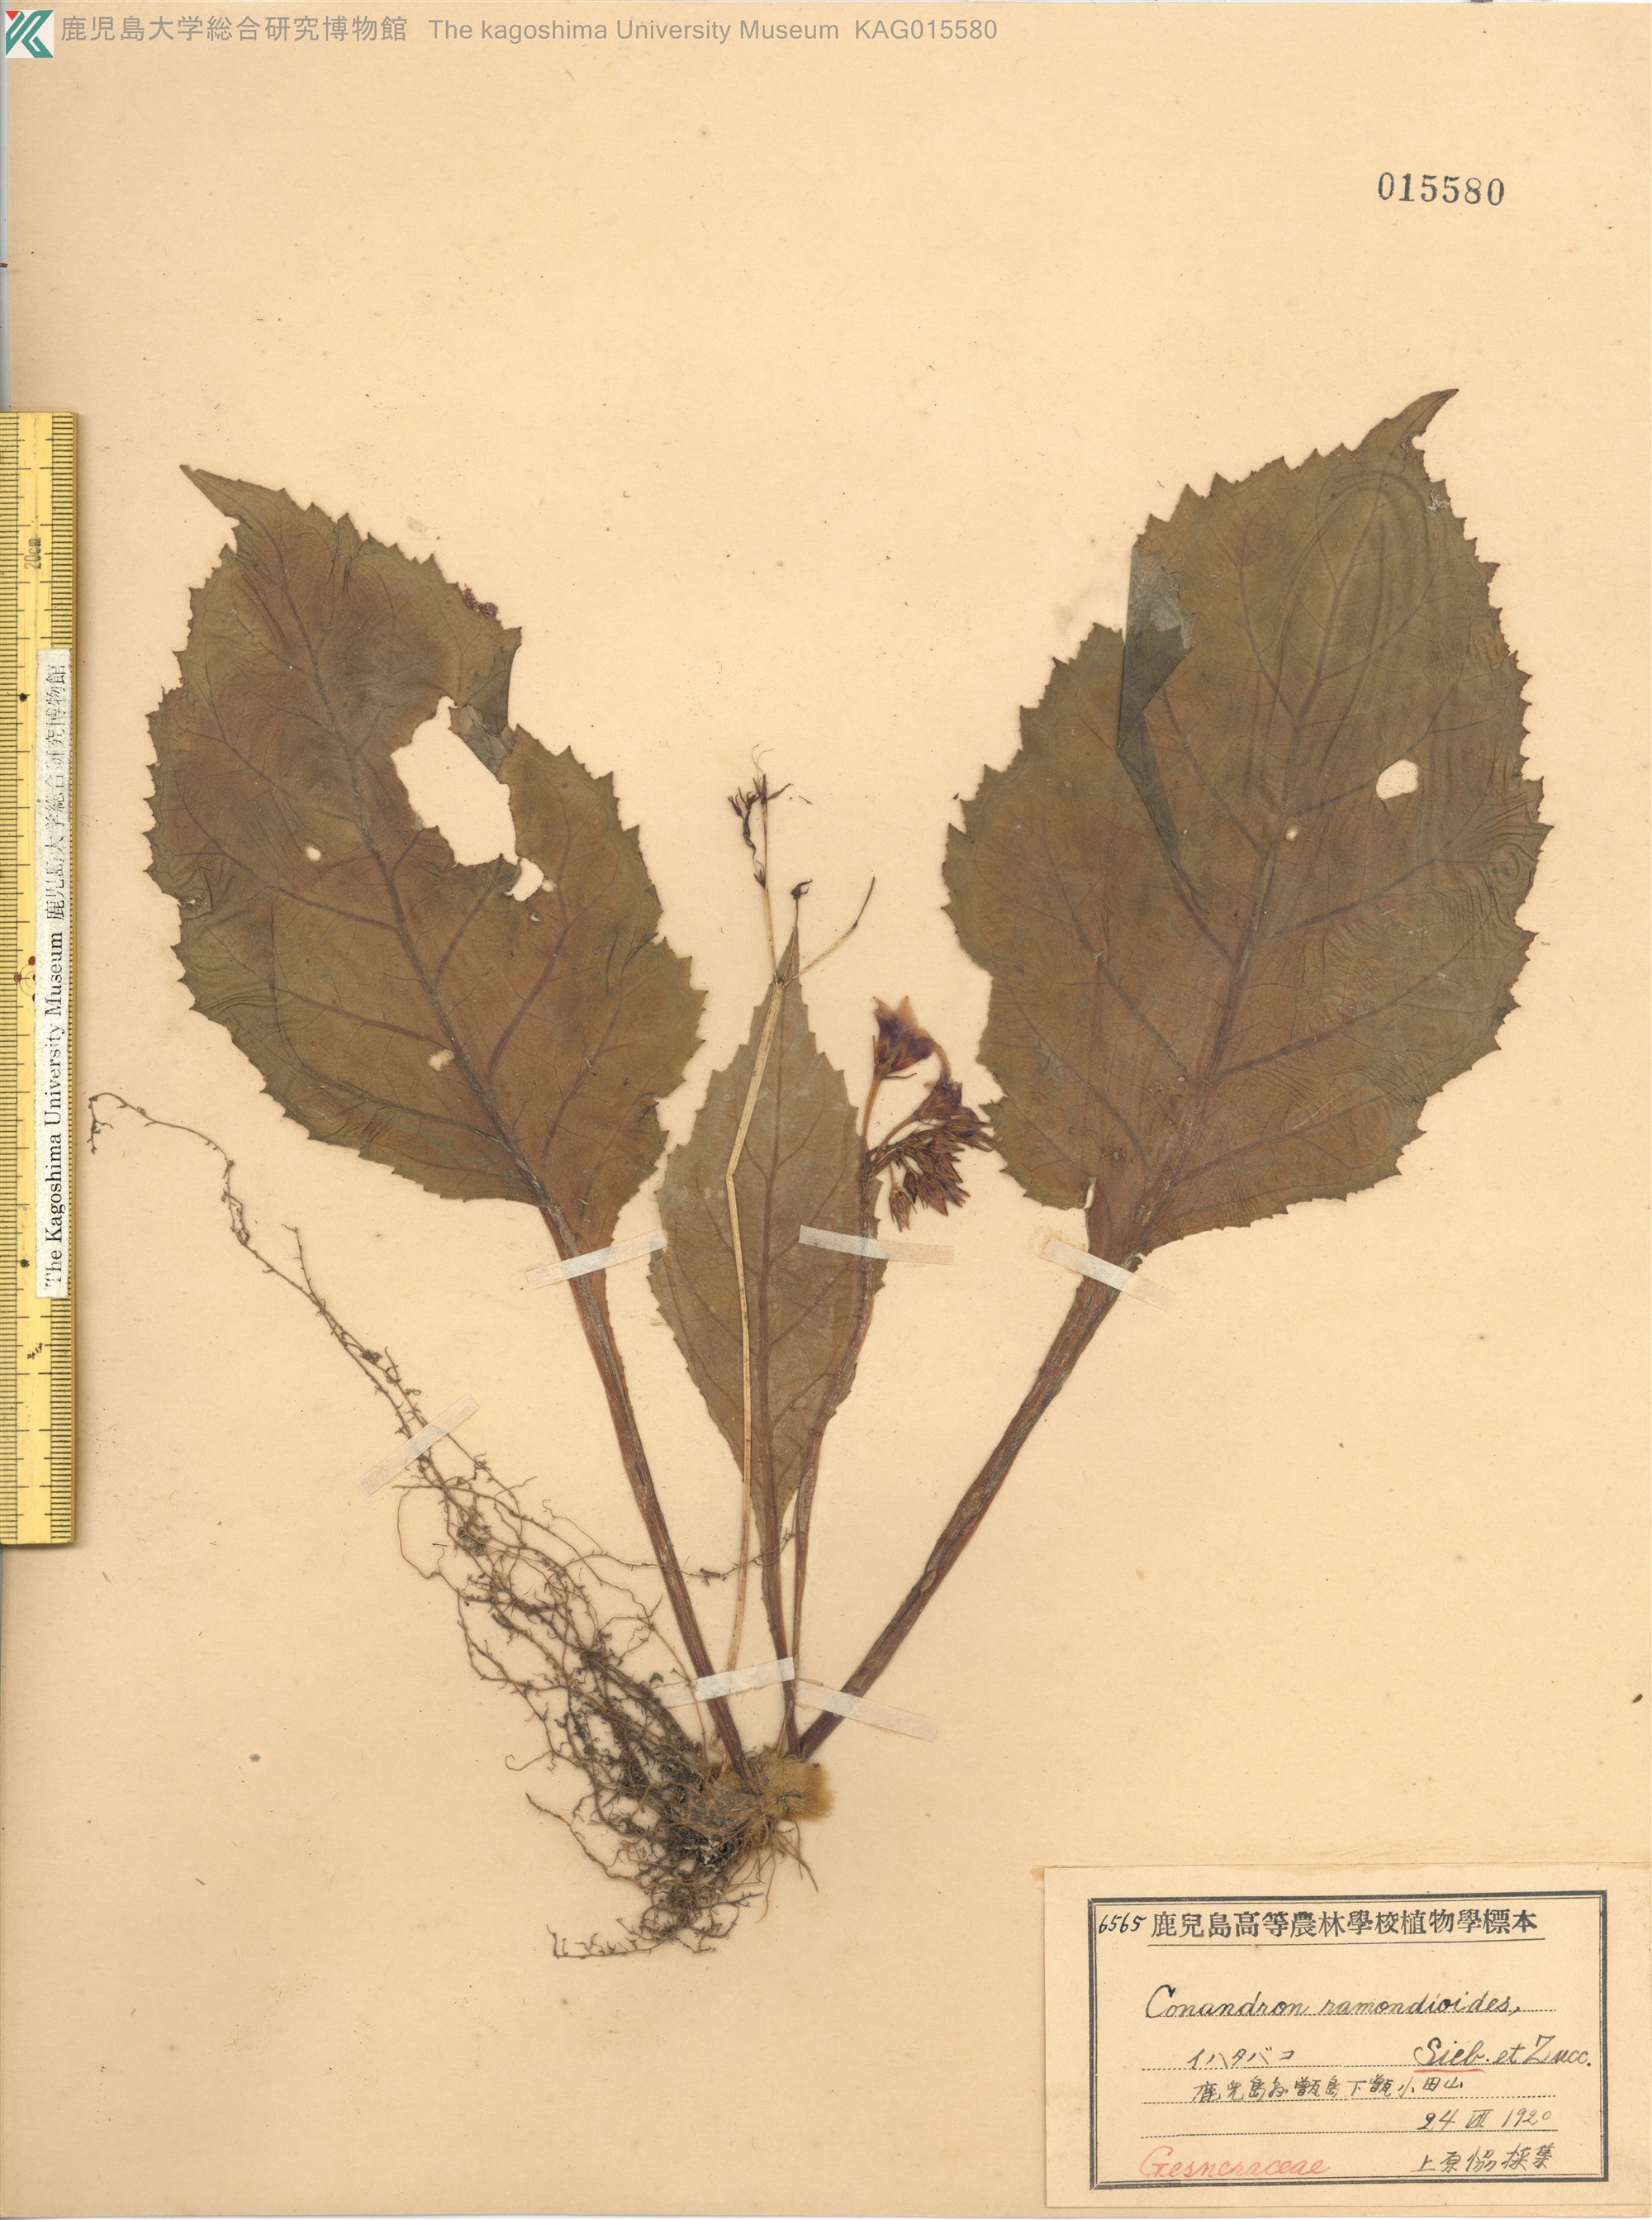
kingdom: Plantae
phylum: Tracheophyta
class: Magnoliopsida
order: Lamiales
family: Gesneriaceae
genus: Conandron
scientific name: Conandron ramondioides
